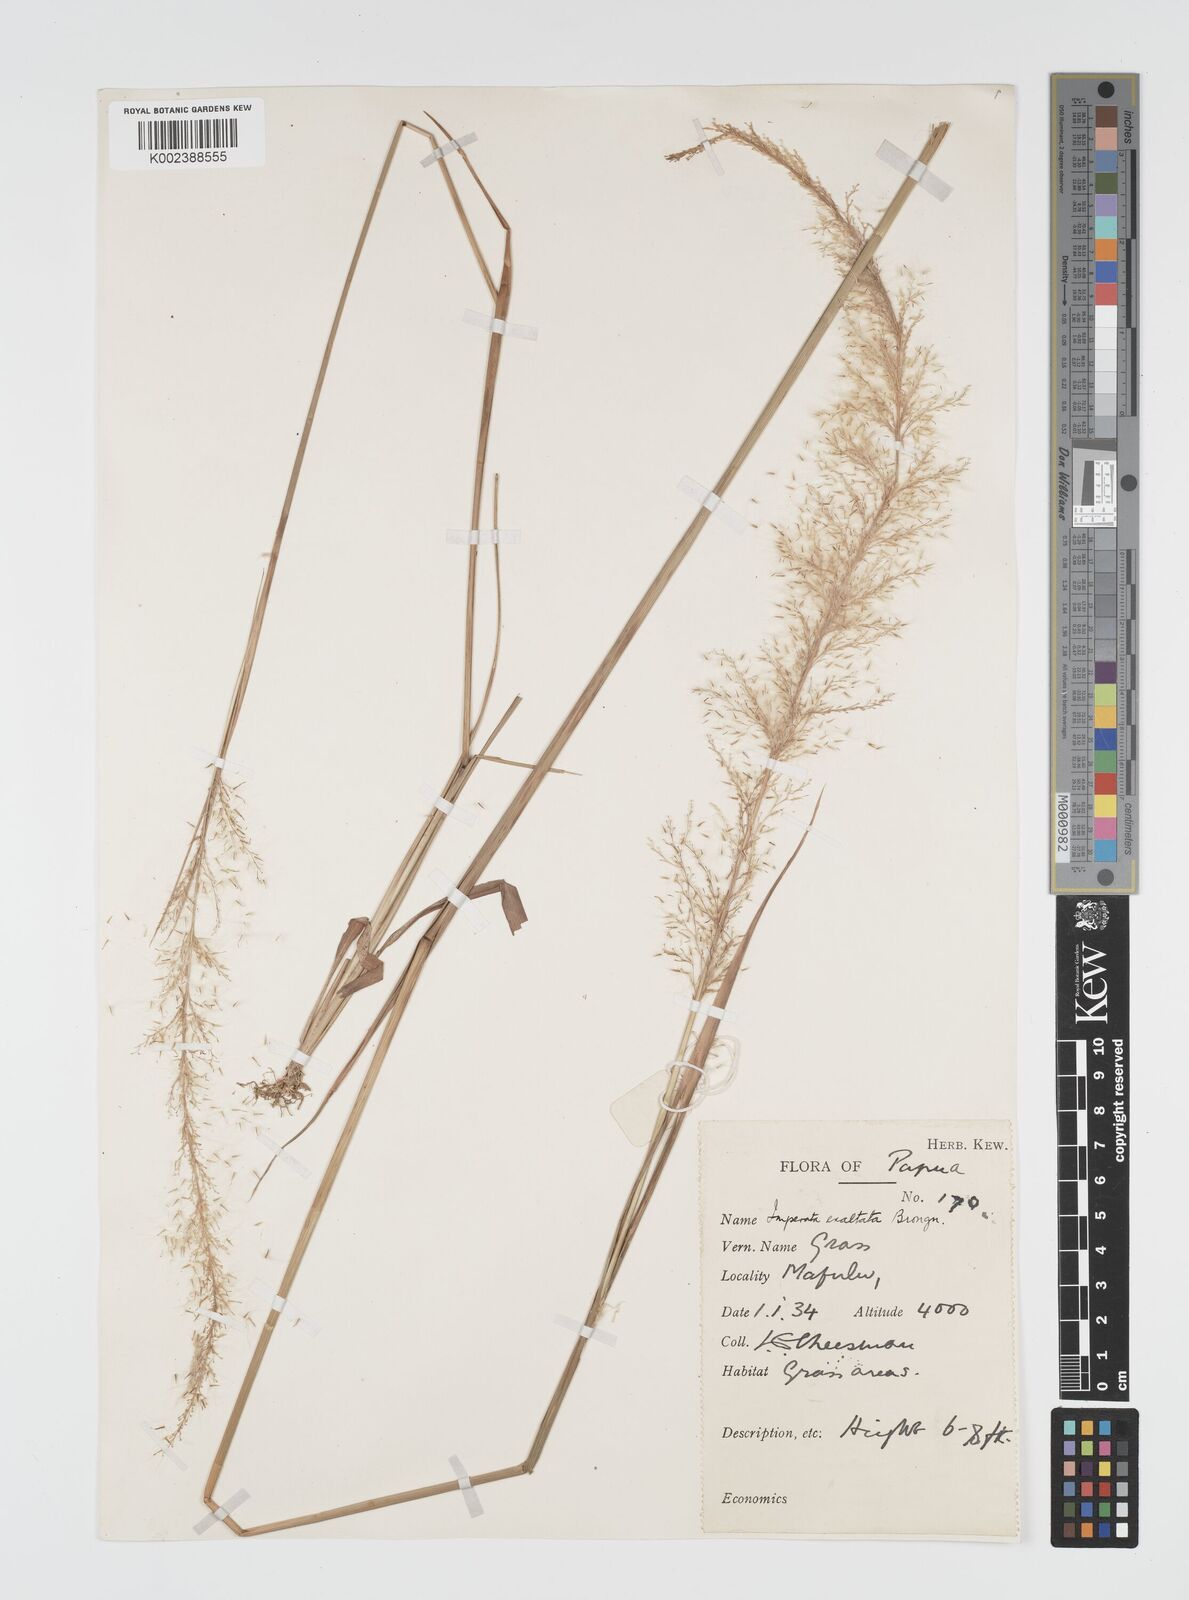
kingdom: Plantae
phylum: Tracheophyta
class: Liliopsida
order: Poales
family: Poaceae
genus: Imperata
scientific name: Imperata conferta
